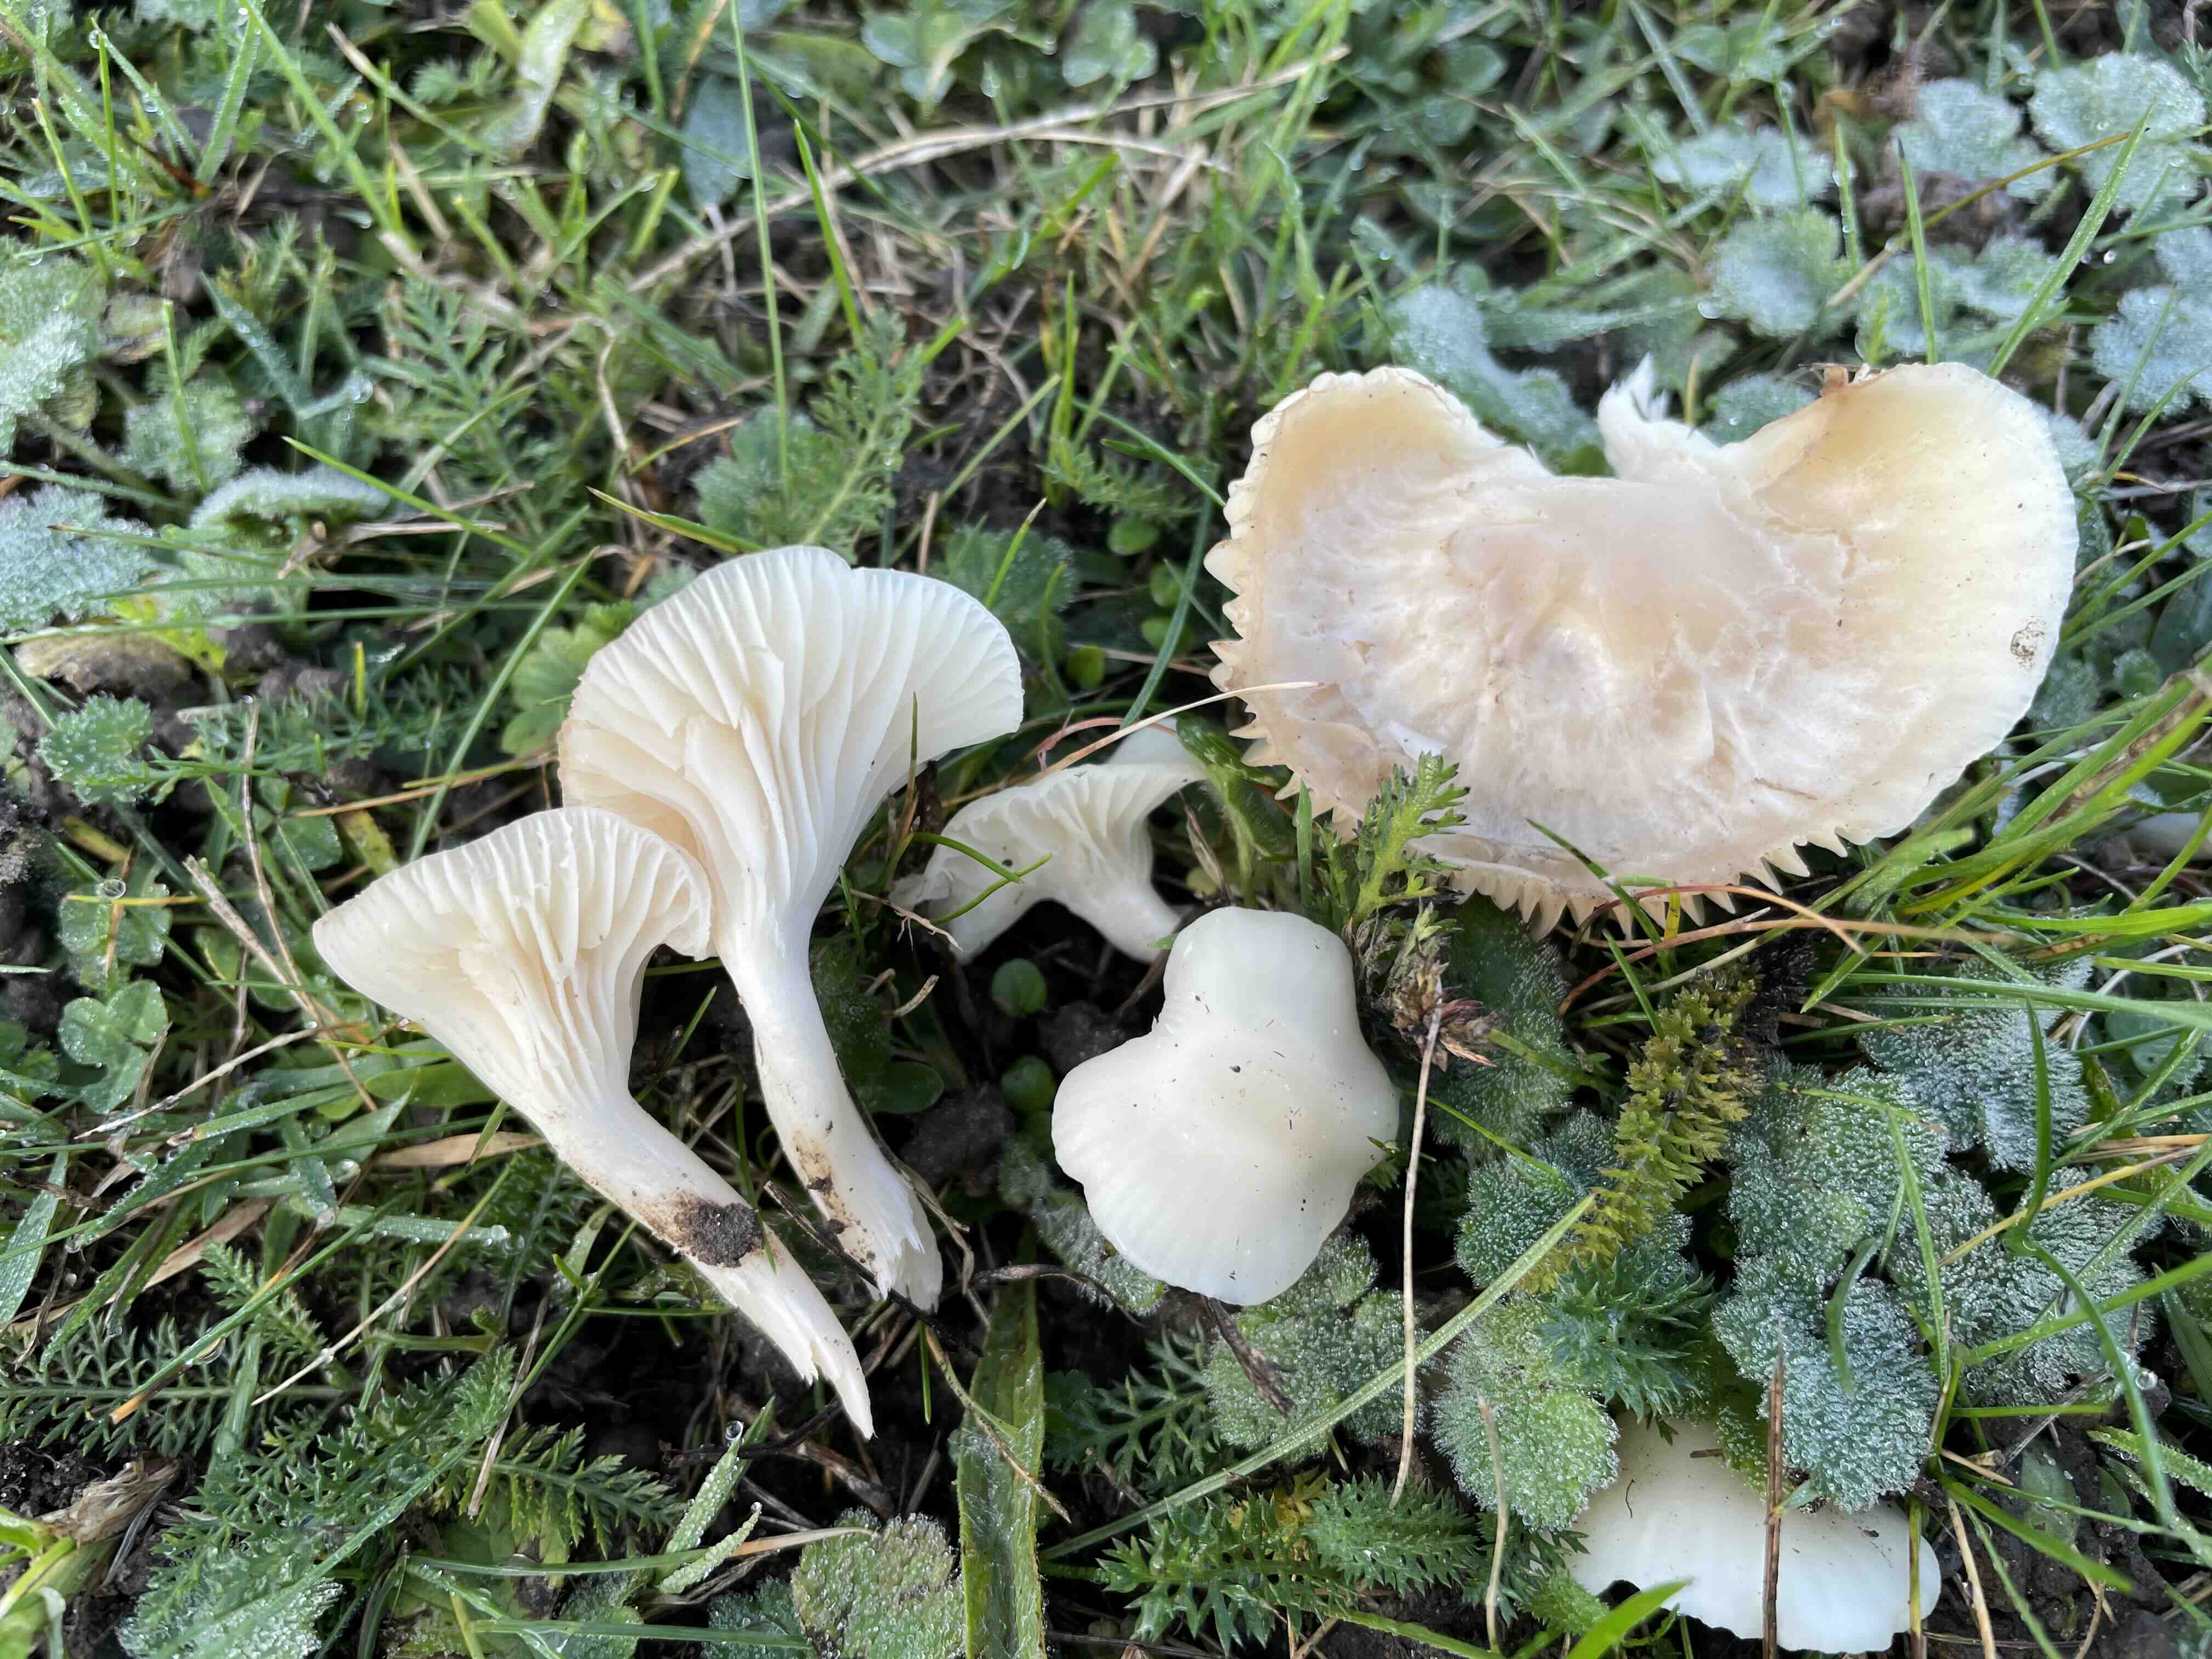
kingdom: Fungi
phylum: Basidiomycota
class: Agaricomycetes
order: Agaricales
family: Hygrophoraceae
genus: Cuphophyllus
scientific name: Cuphophyllus russocoriaceus
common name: ruslæder-vokshat
